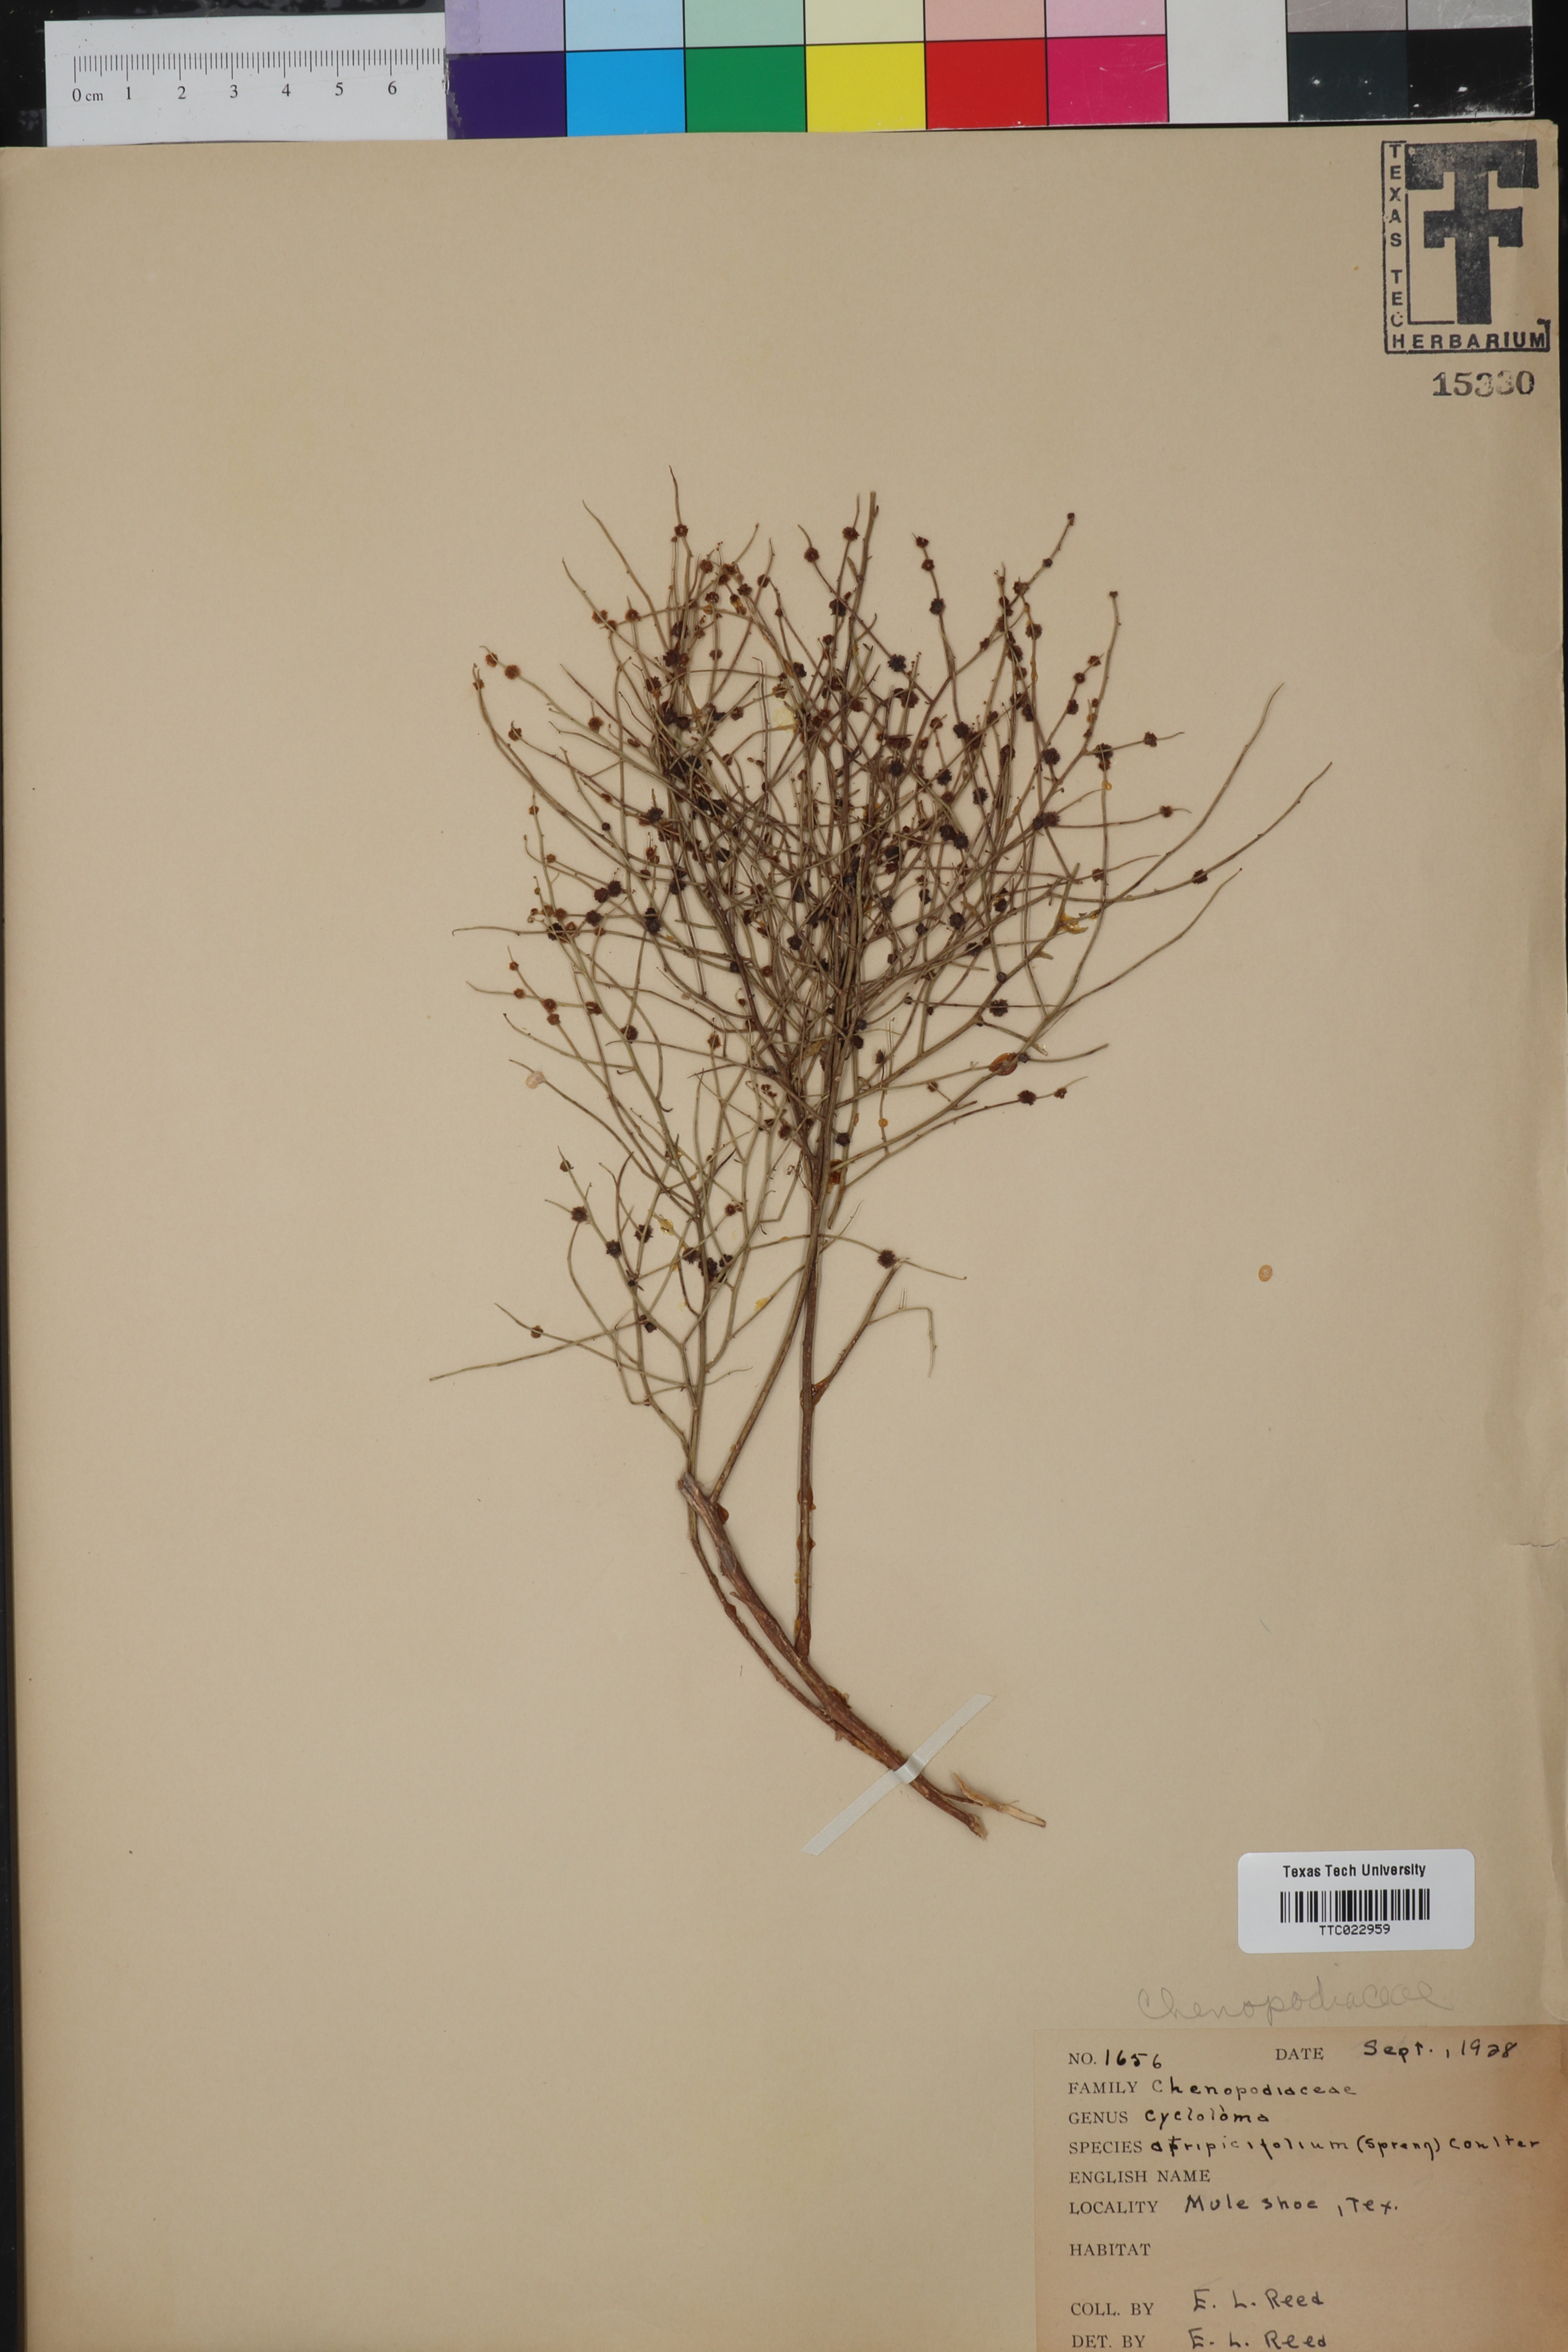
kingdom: Plantae
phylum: Tracheophyta
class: Magnoliopsida
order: Caryophyllales
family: Amaranthaceae
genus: Dysphania
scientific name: Dysphania atriplicifolia
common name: Plains tumbleweed
